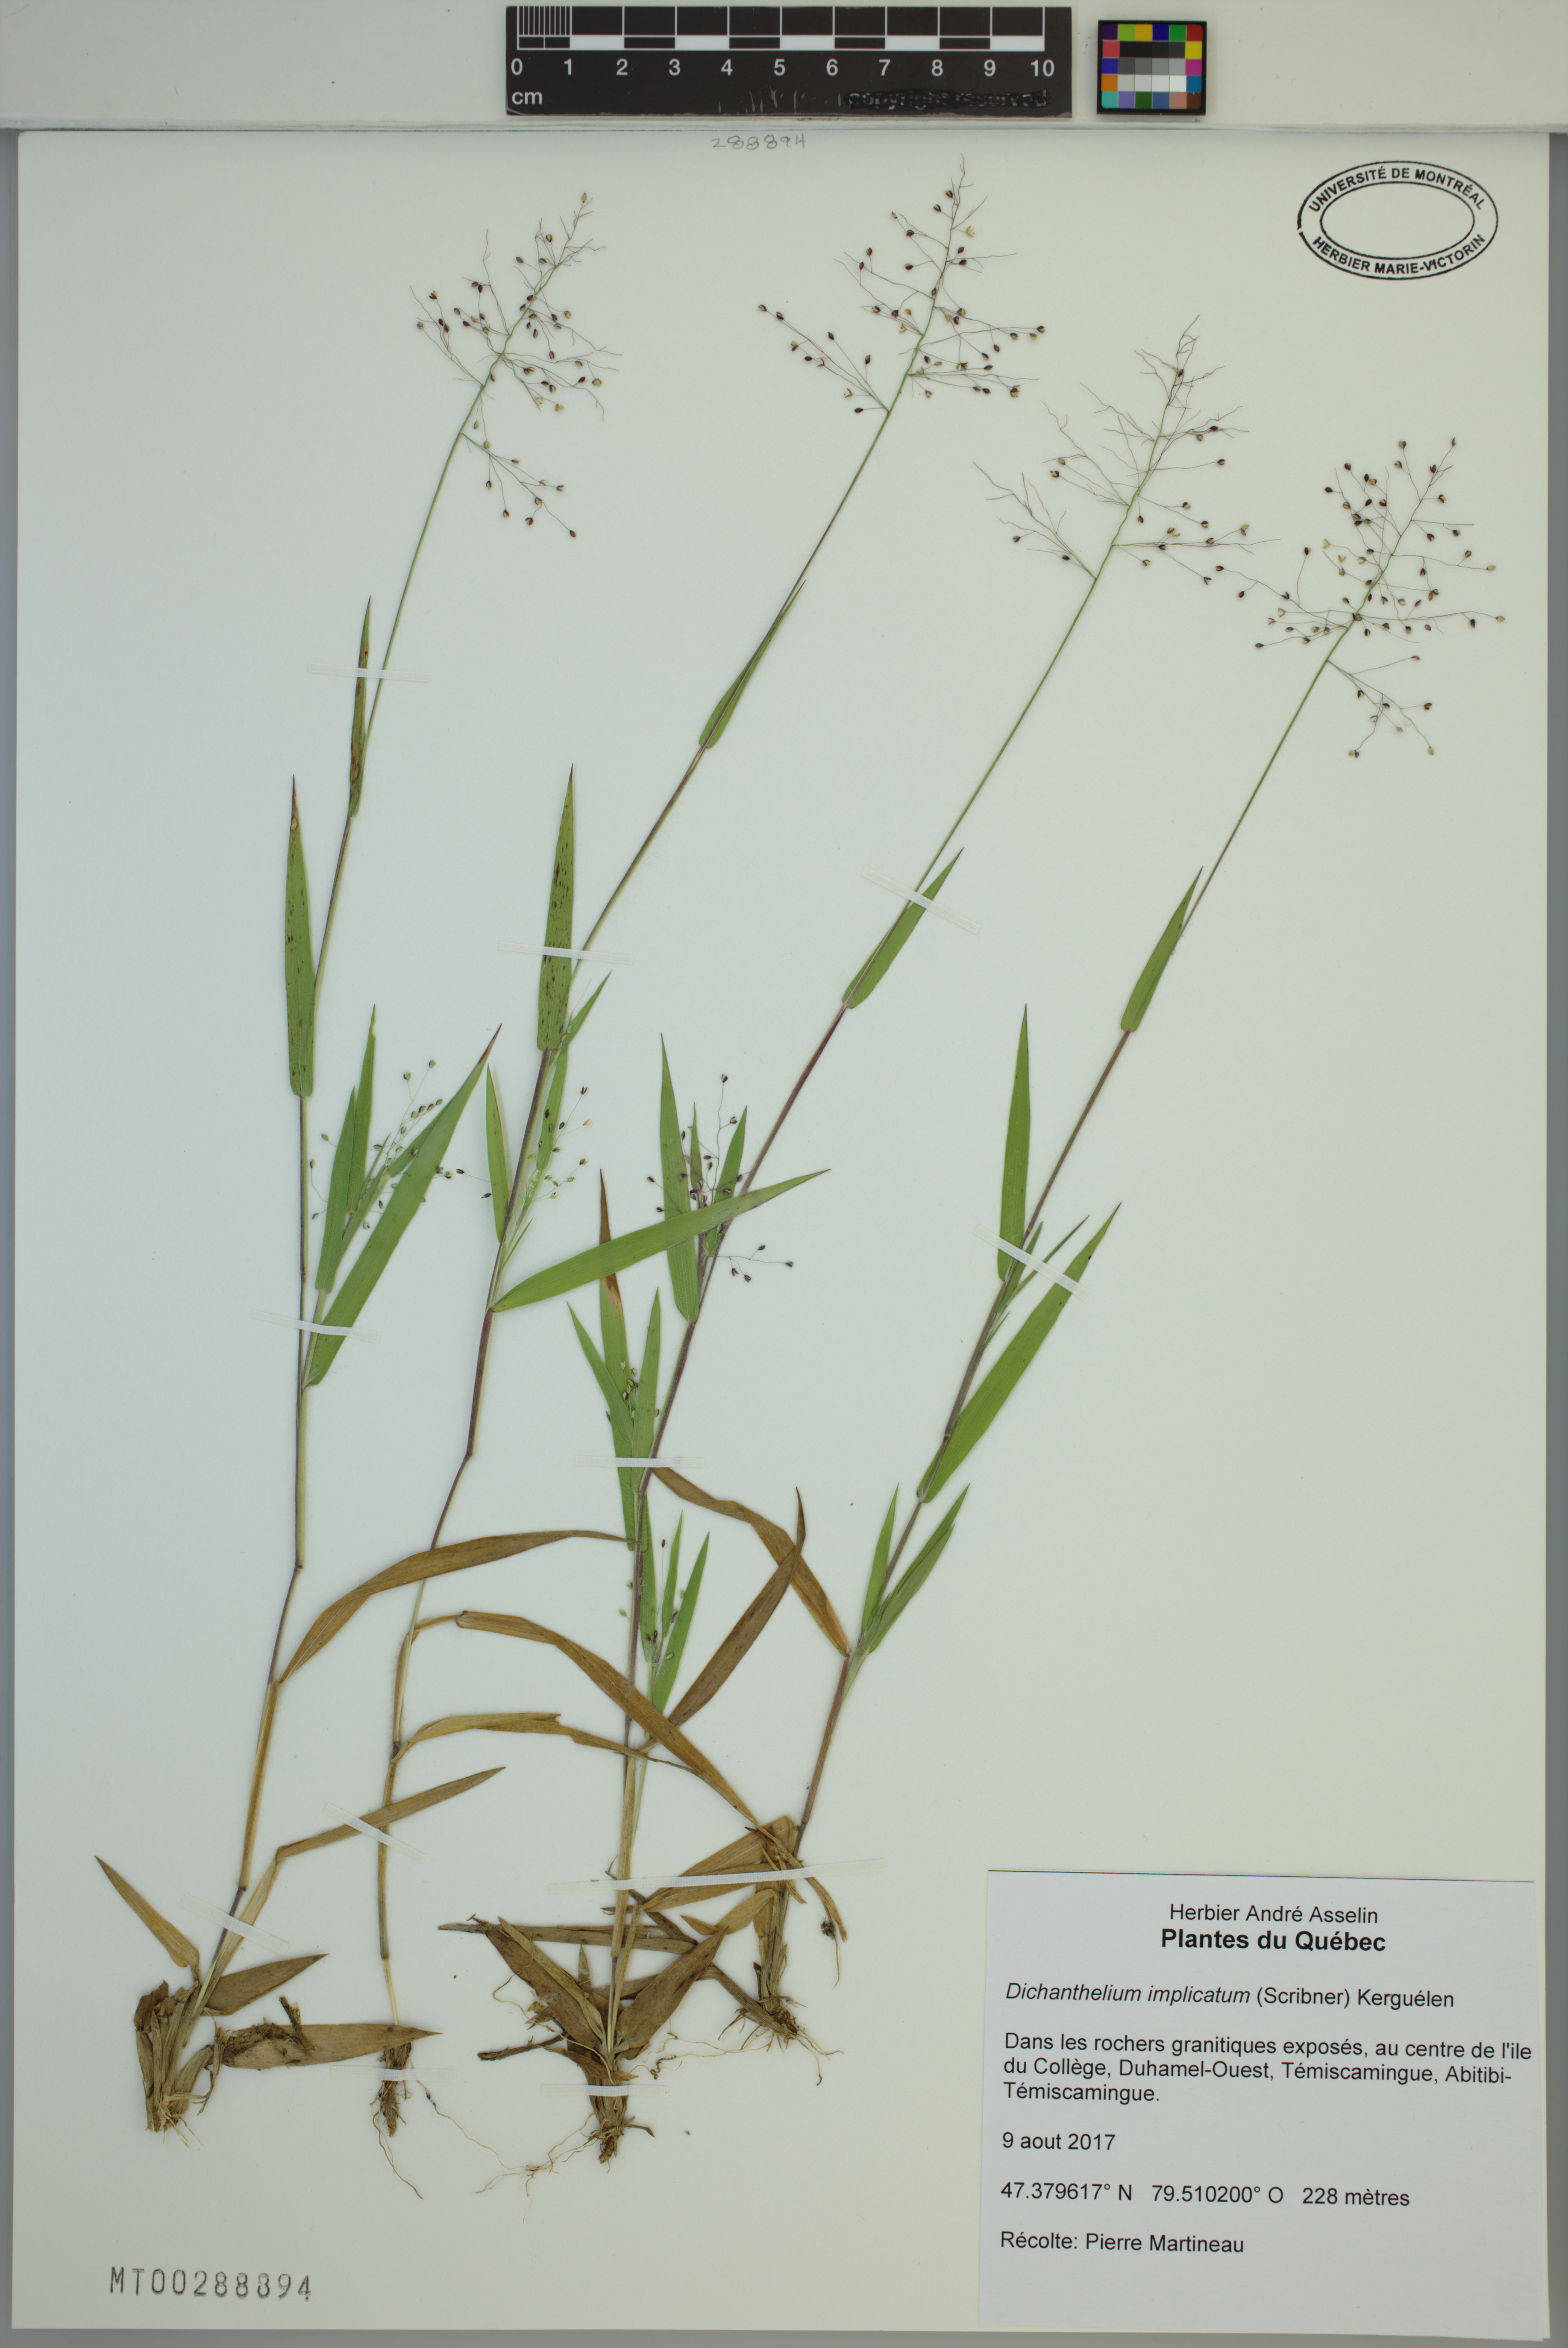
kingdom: Plantae
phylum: Tracheophyta
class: Liliopsida
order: Poales
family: Poaceae
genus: Dichanthelium
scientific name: Dichanthelium implicatum
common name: Slender-stemmed panicgrass
